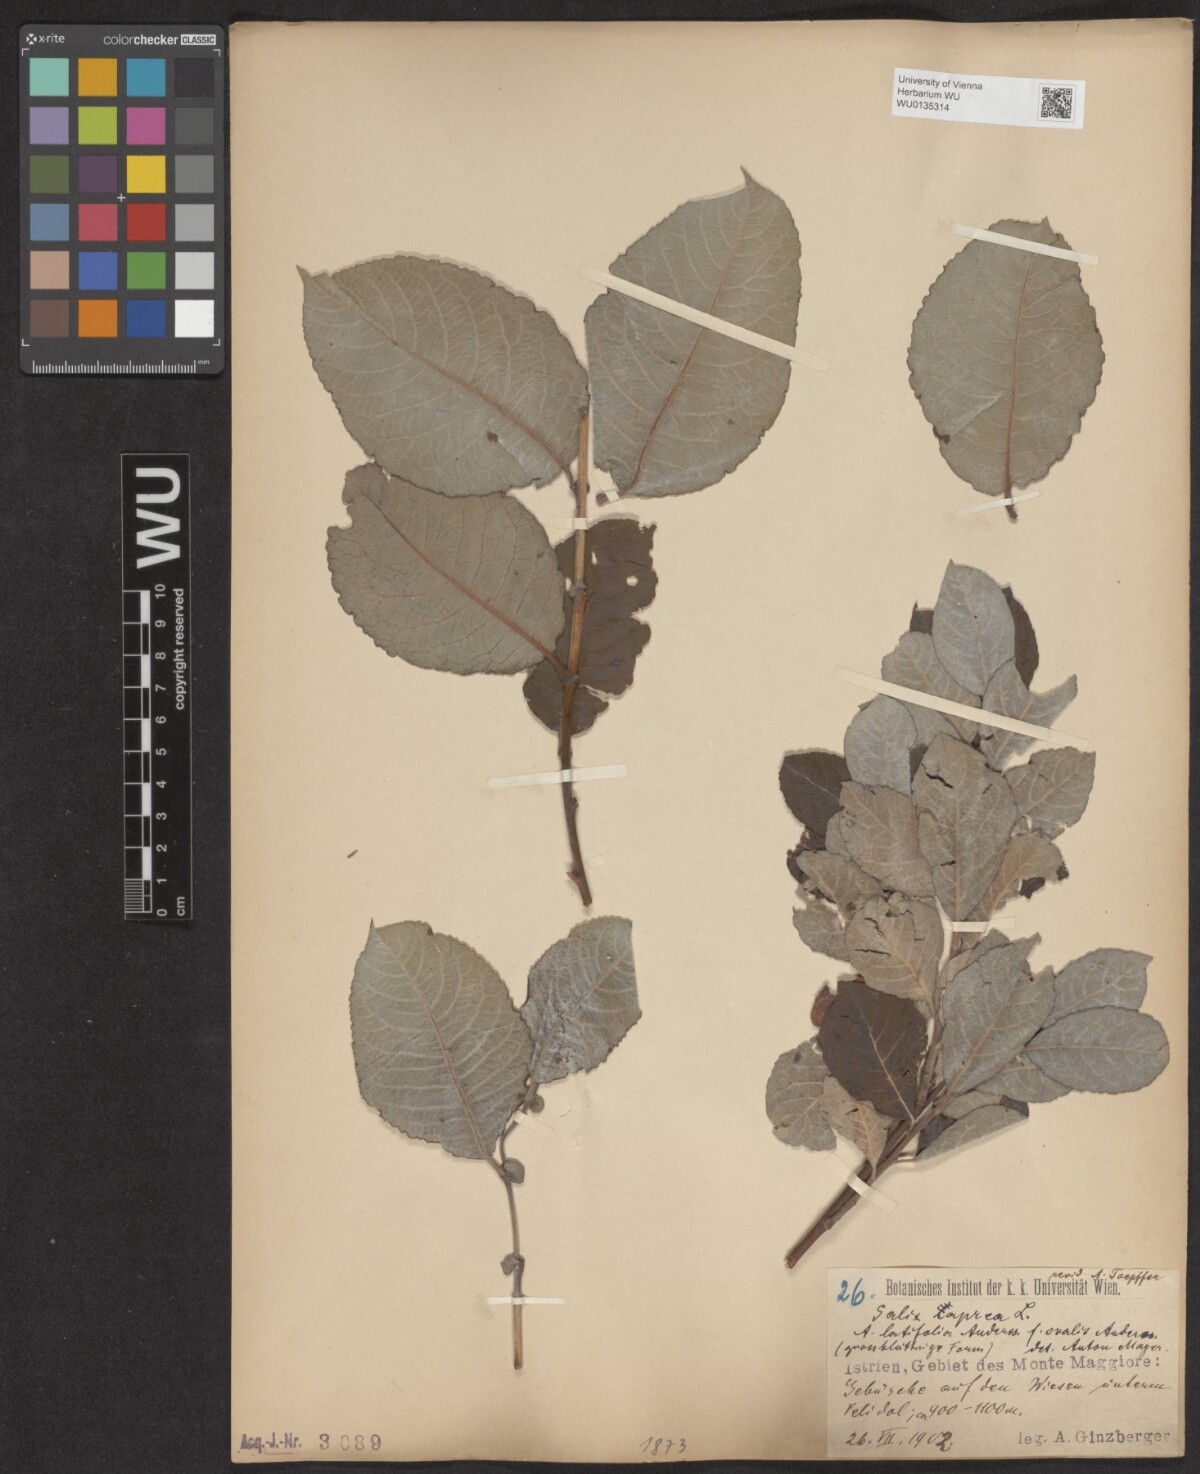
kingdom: Plantae
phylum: Tracheophyta
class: Magnoliopsida
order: Malpighiales
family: Salicaceae
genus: Salix
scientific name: Salix caprea
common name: Goat willow
